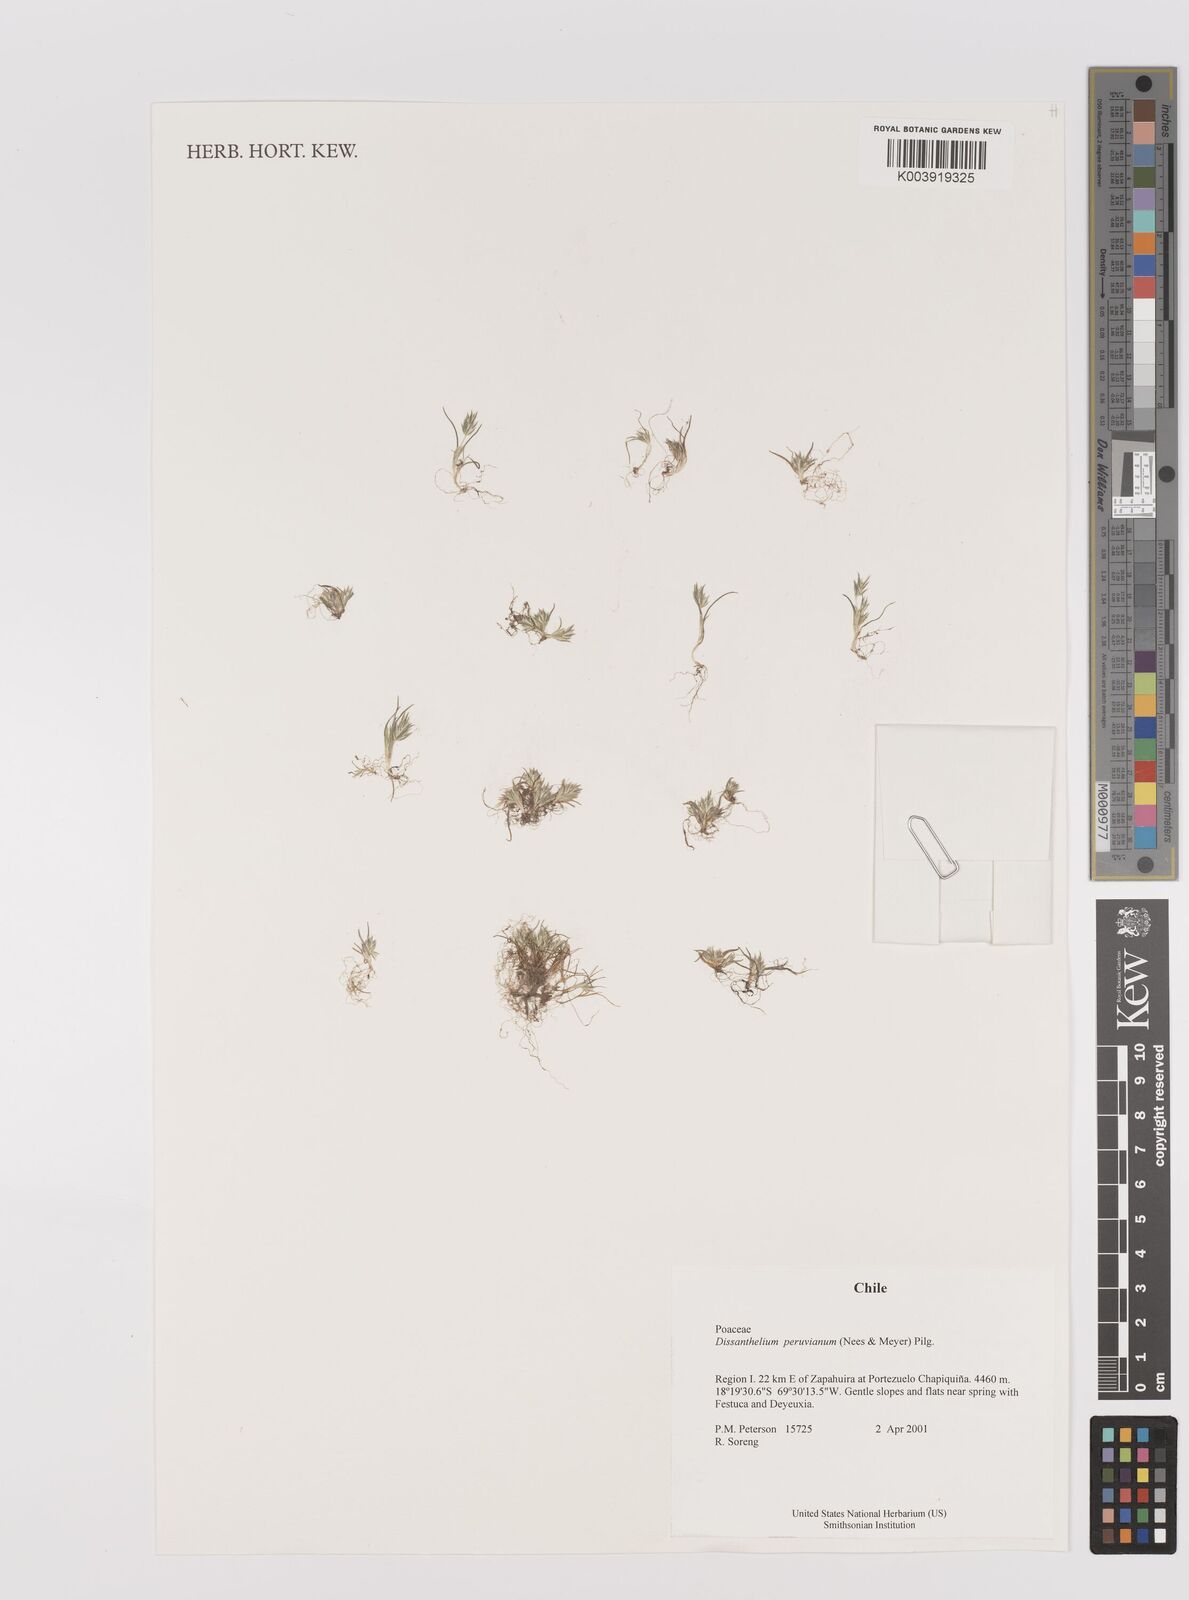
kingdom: Plantae
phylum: Tracheophyta
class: Liliopsida
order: Poales
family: Poaceae
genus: Poa
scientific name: Poa serpana
